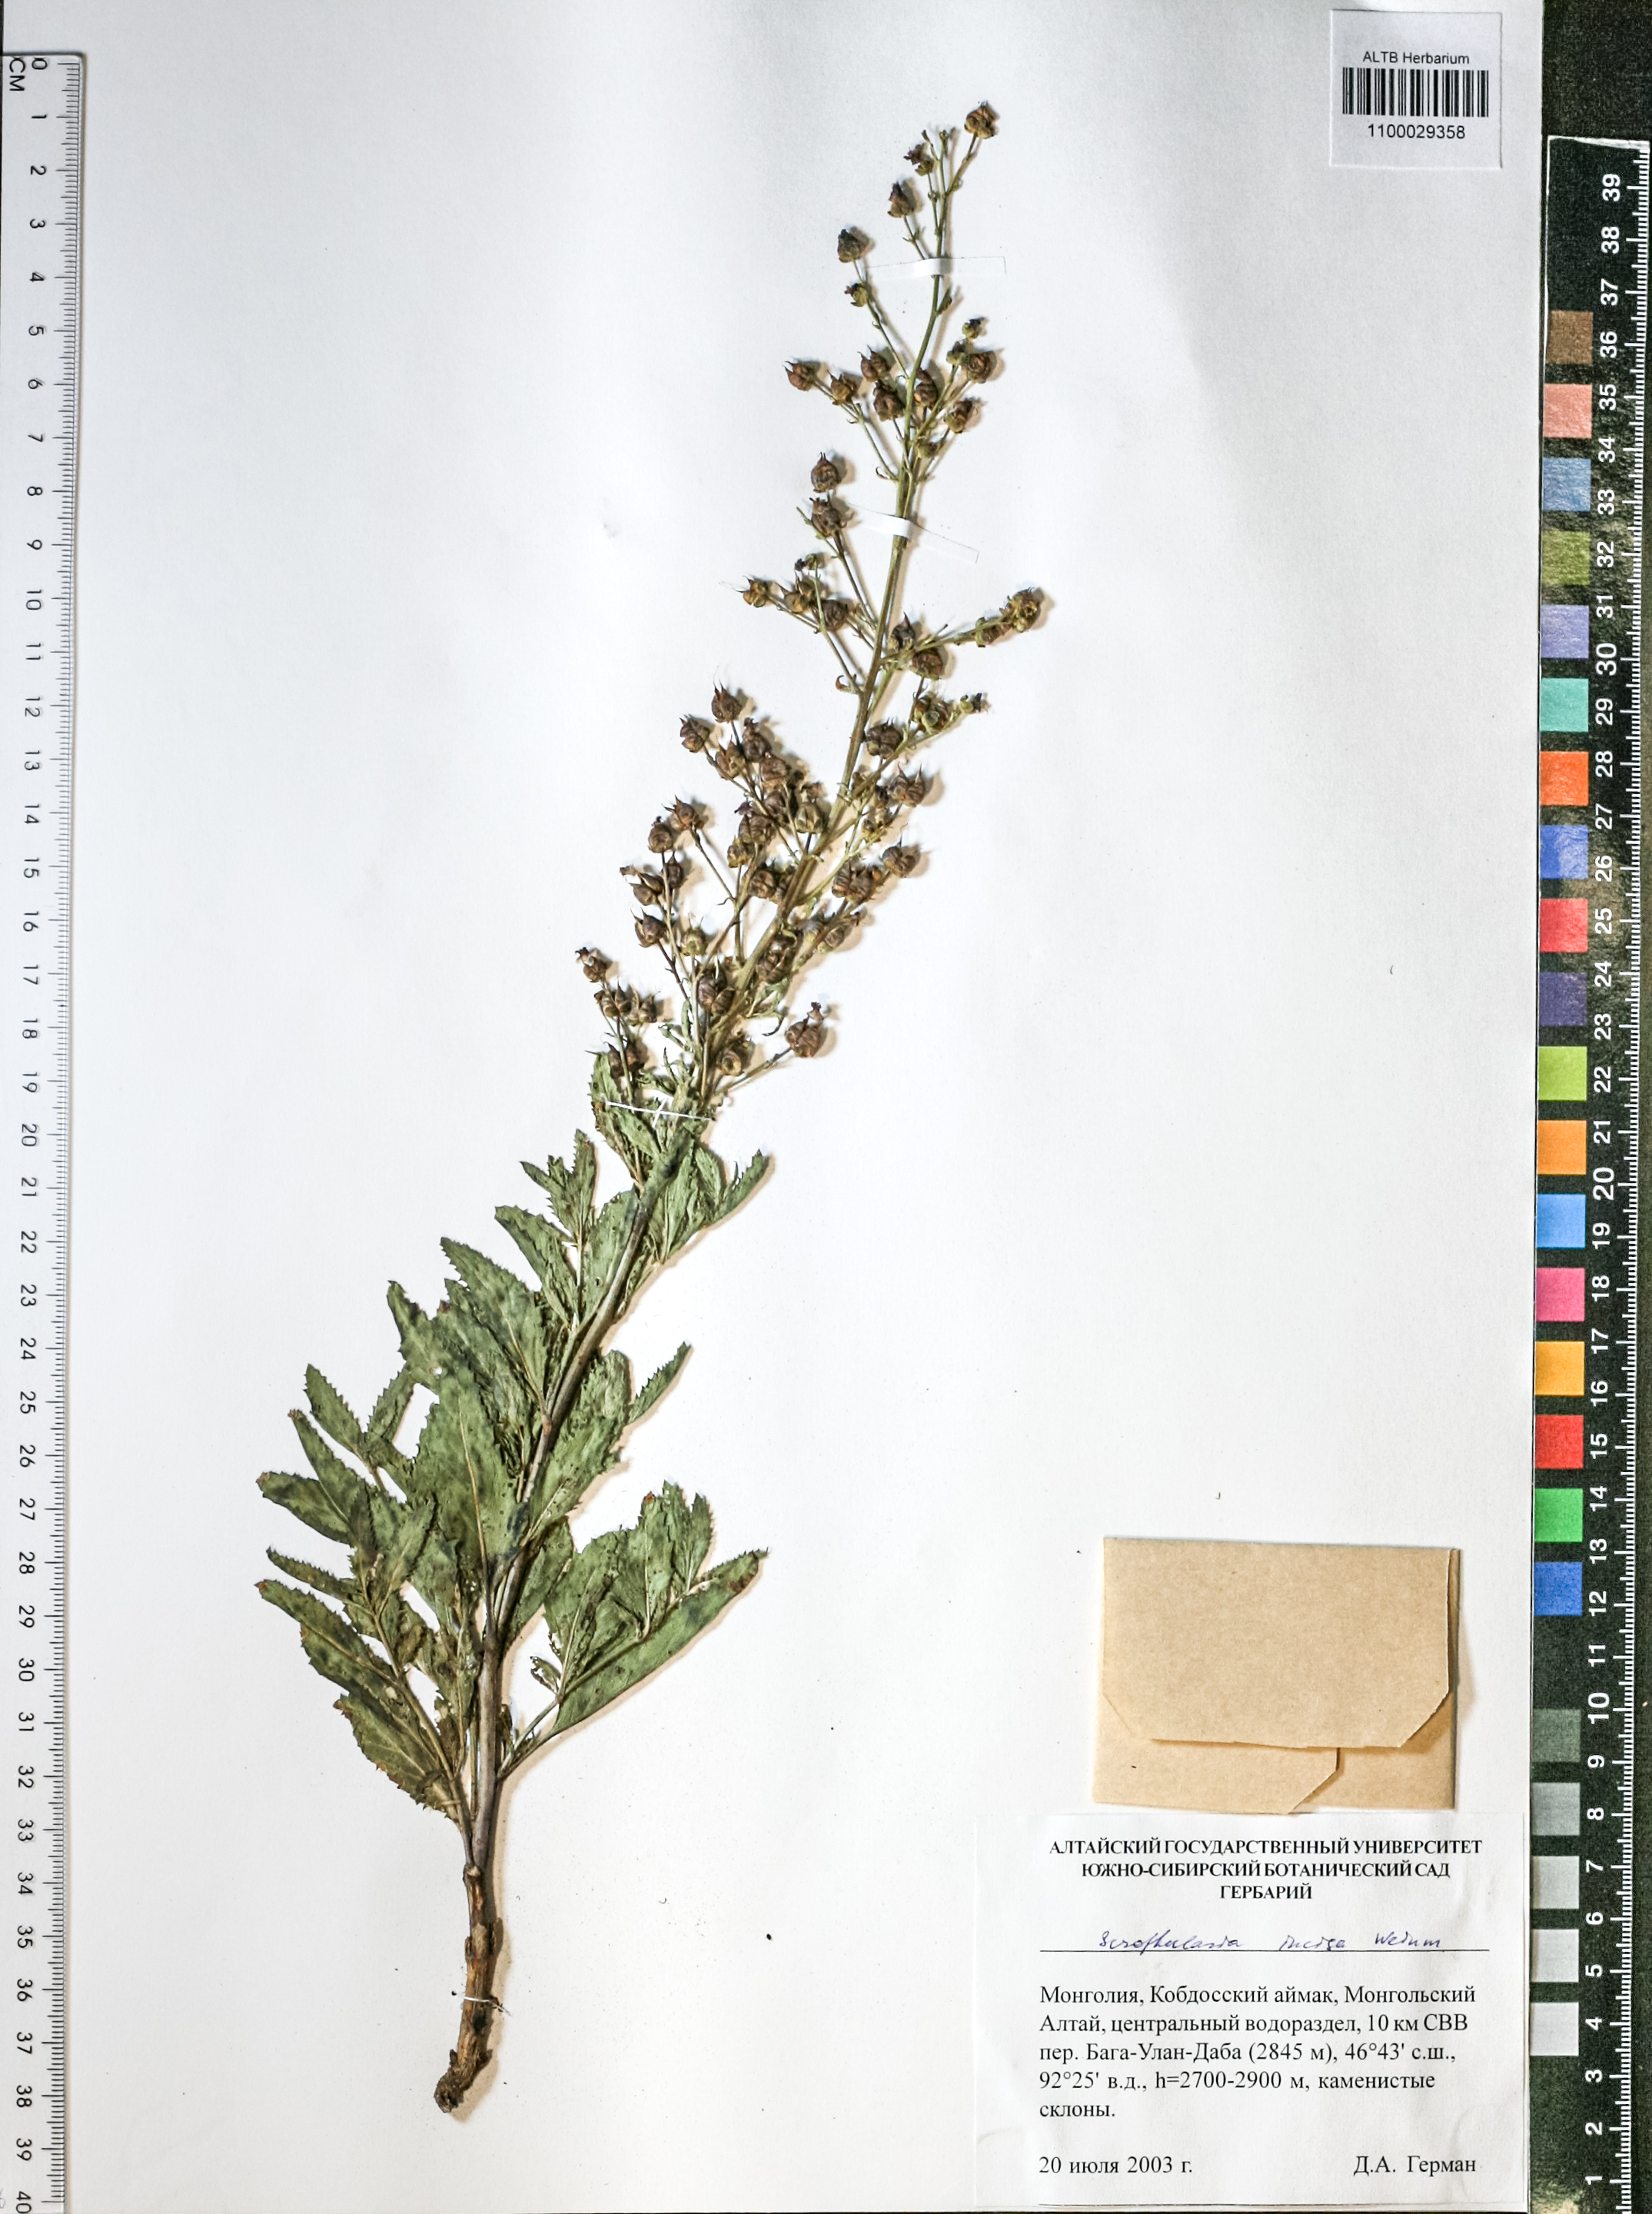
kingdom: Plantae
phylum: Tracheophyta
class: Magnoliopsida
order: Lamiales
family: Scrophulariaceae
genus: Scrophularia
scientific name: Scrophularia incisa
